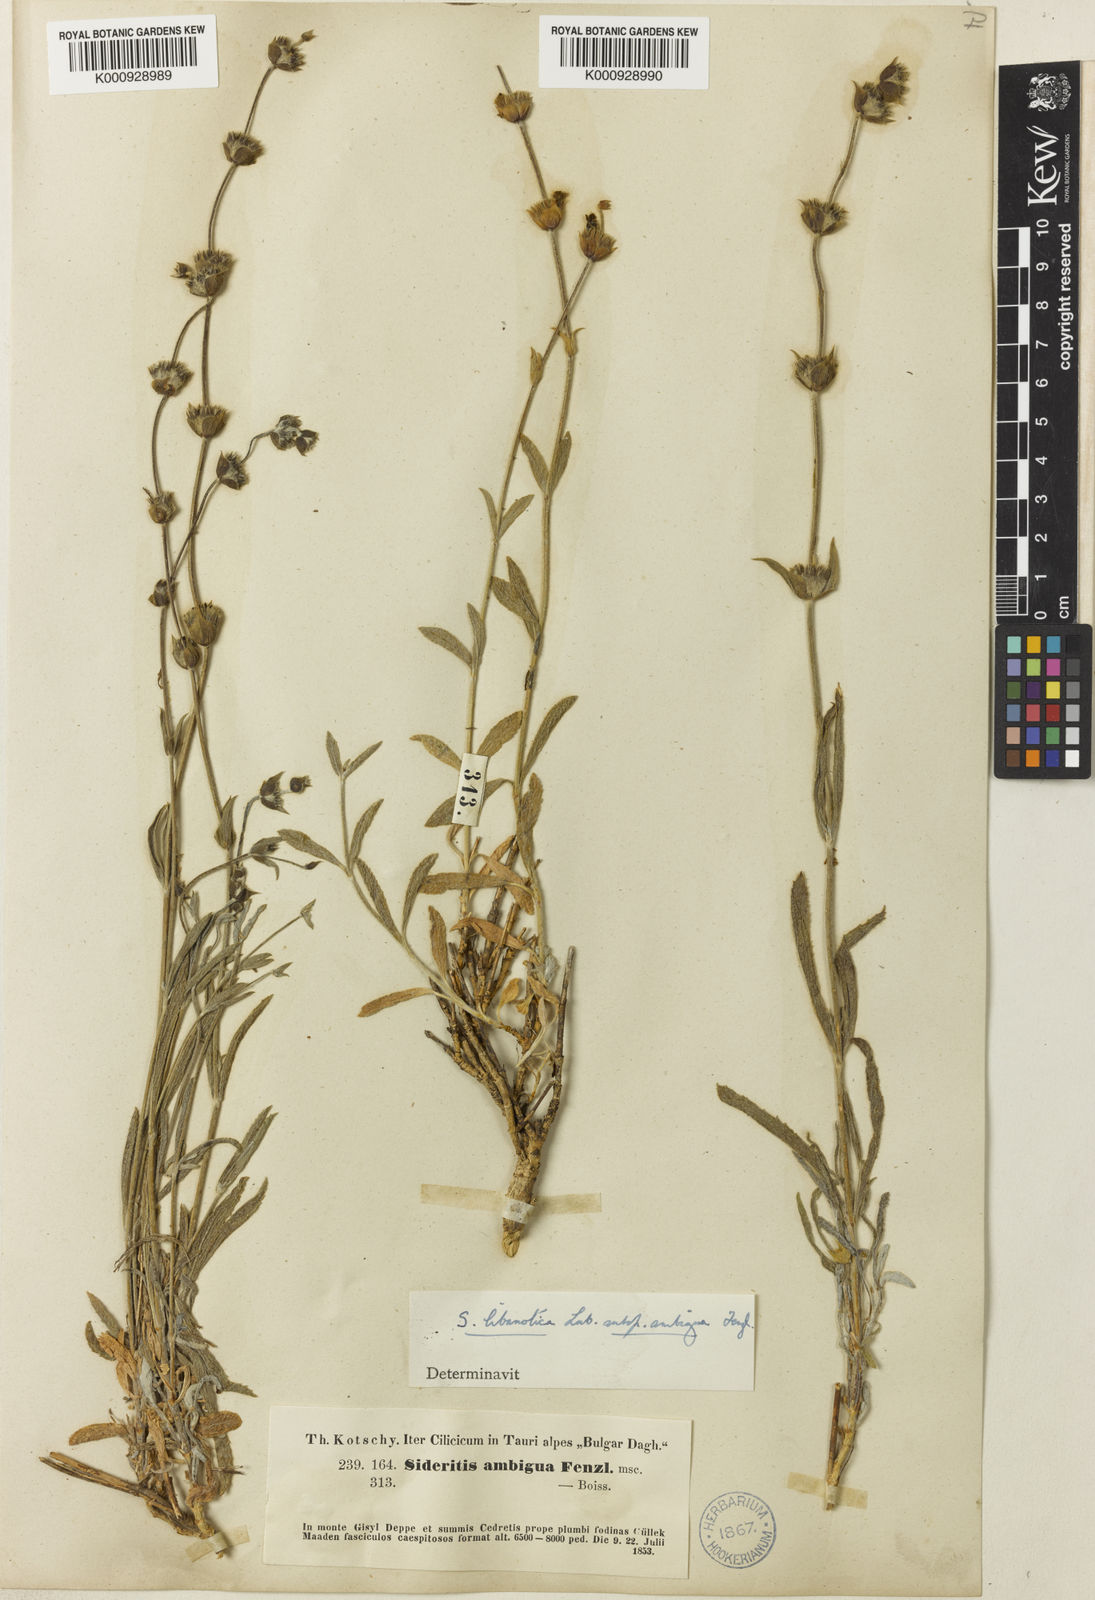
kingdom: Plantae
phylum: Tracheophyta
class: Magnoliopsida
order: Lamiales
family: Lamiaceae
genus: Sideritis
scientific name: Sideritis libanotica
